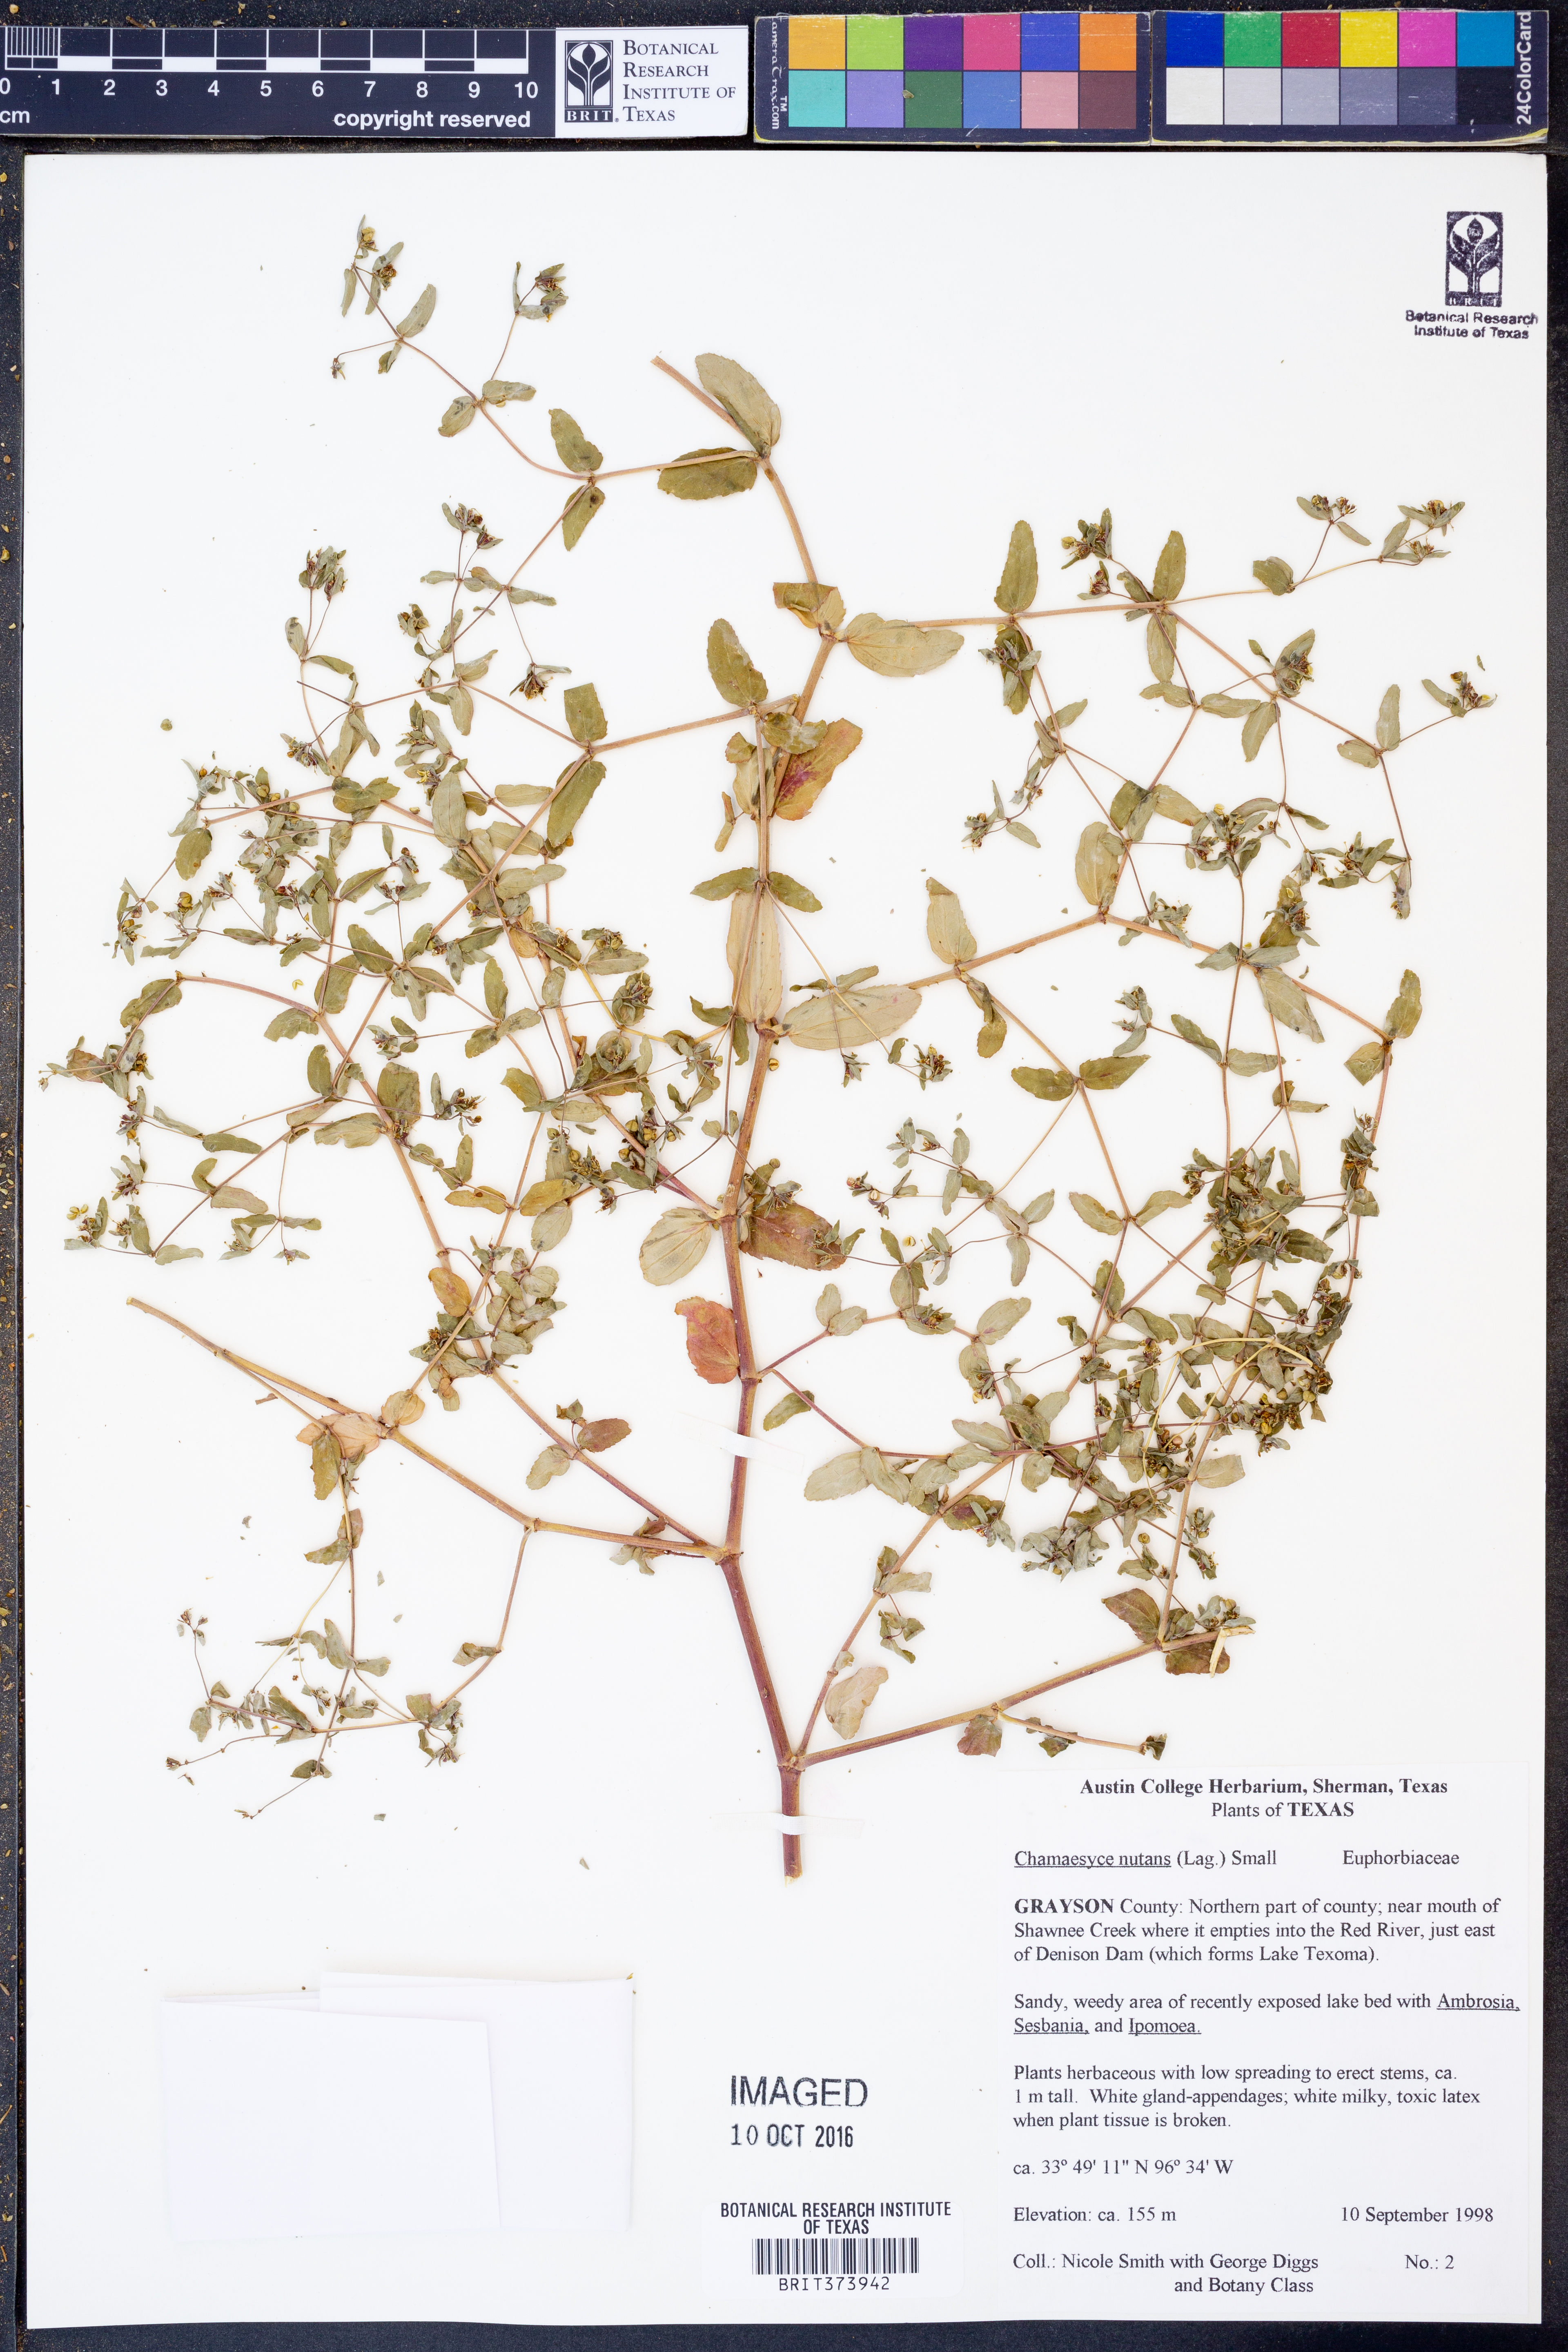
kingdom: Plantae
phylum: Tracheophyta
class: Magnoliopsida
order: Malpighiales
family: Euphorbiaceae
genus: Euphorbia
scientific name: Euphorbia nutans
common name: Eyebane
